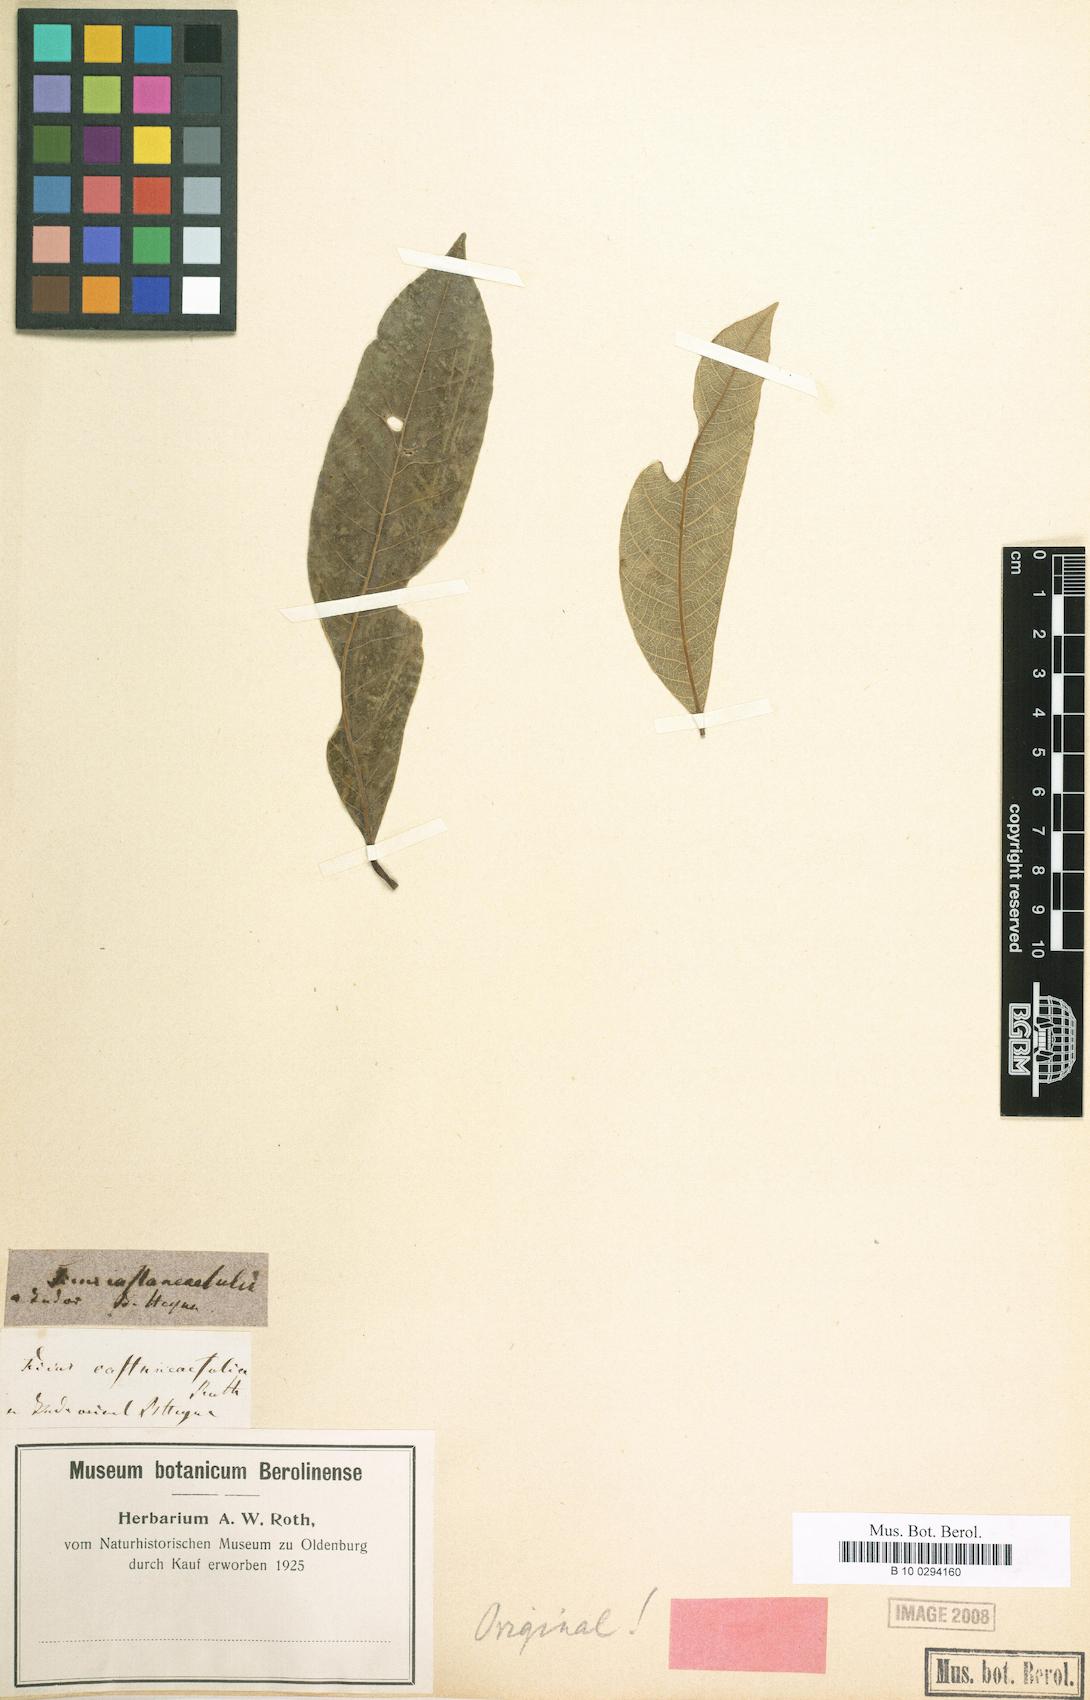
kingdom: Plantae
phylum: Tracheophyta
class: Magnoliopsida
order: Sapindales
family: Anacardiaceae
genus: Nothopegia
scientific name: Nothopegia castaneifolia
